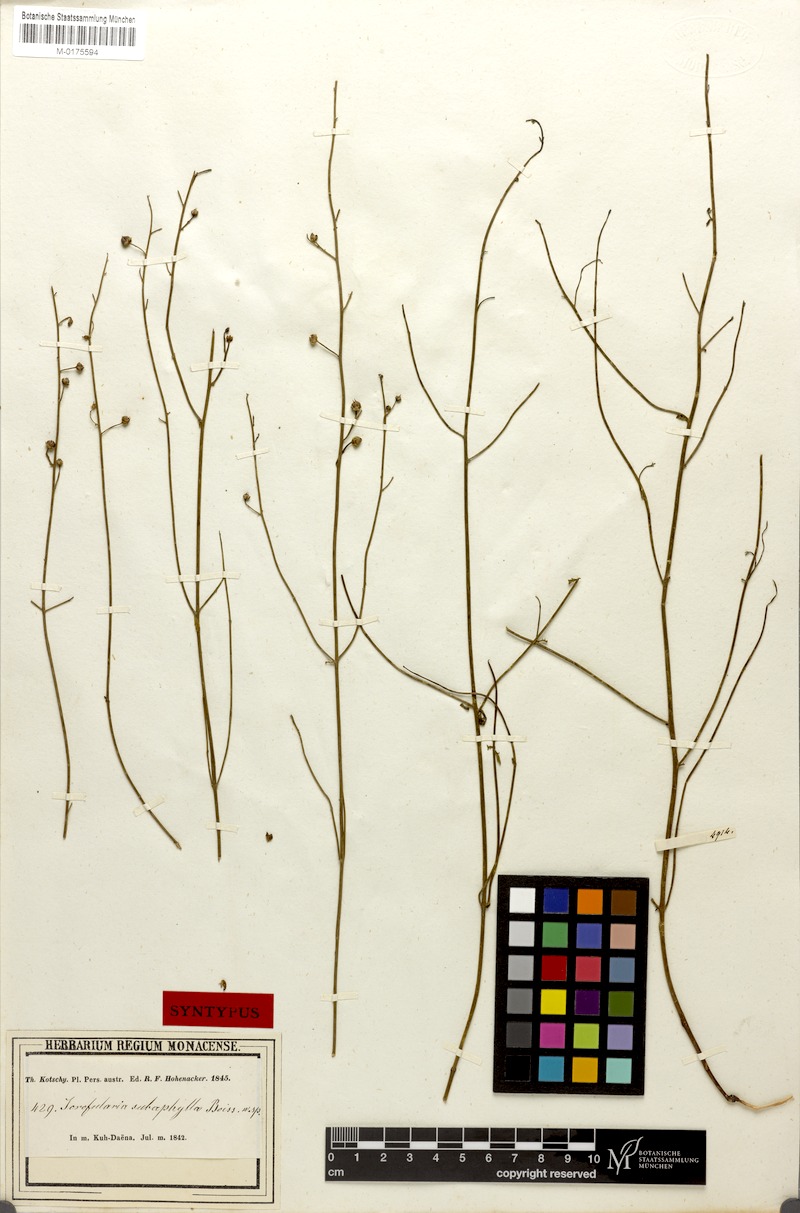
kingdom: Plantae
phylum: Tracheophyta
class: Magnoliopsida
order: Lamiales
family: Scrophulariaceae
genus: Scrophularia
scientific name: Scrophularia subaphylla
